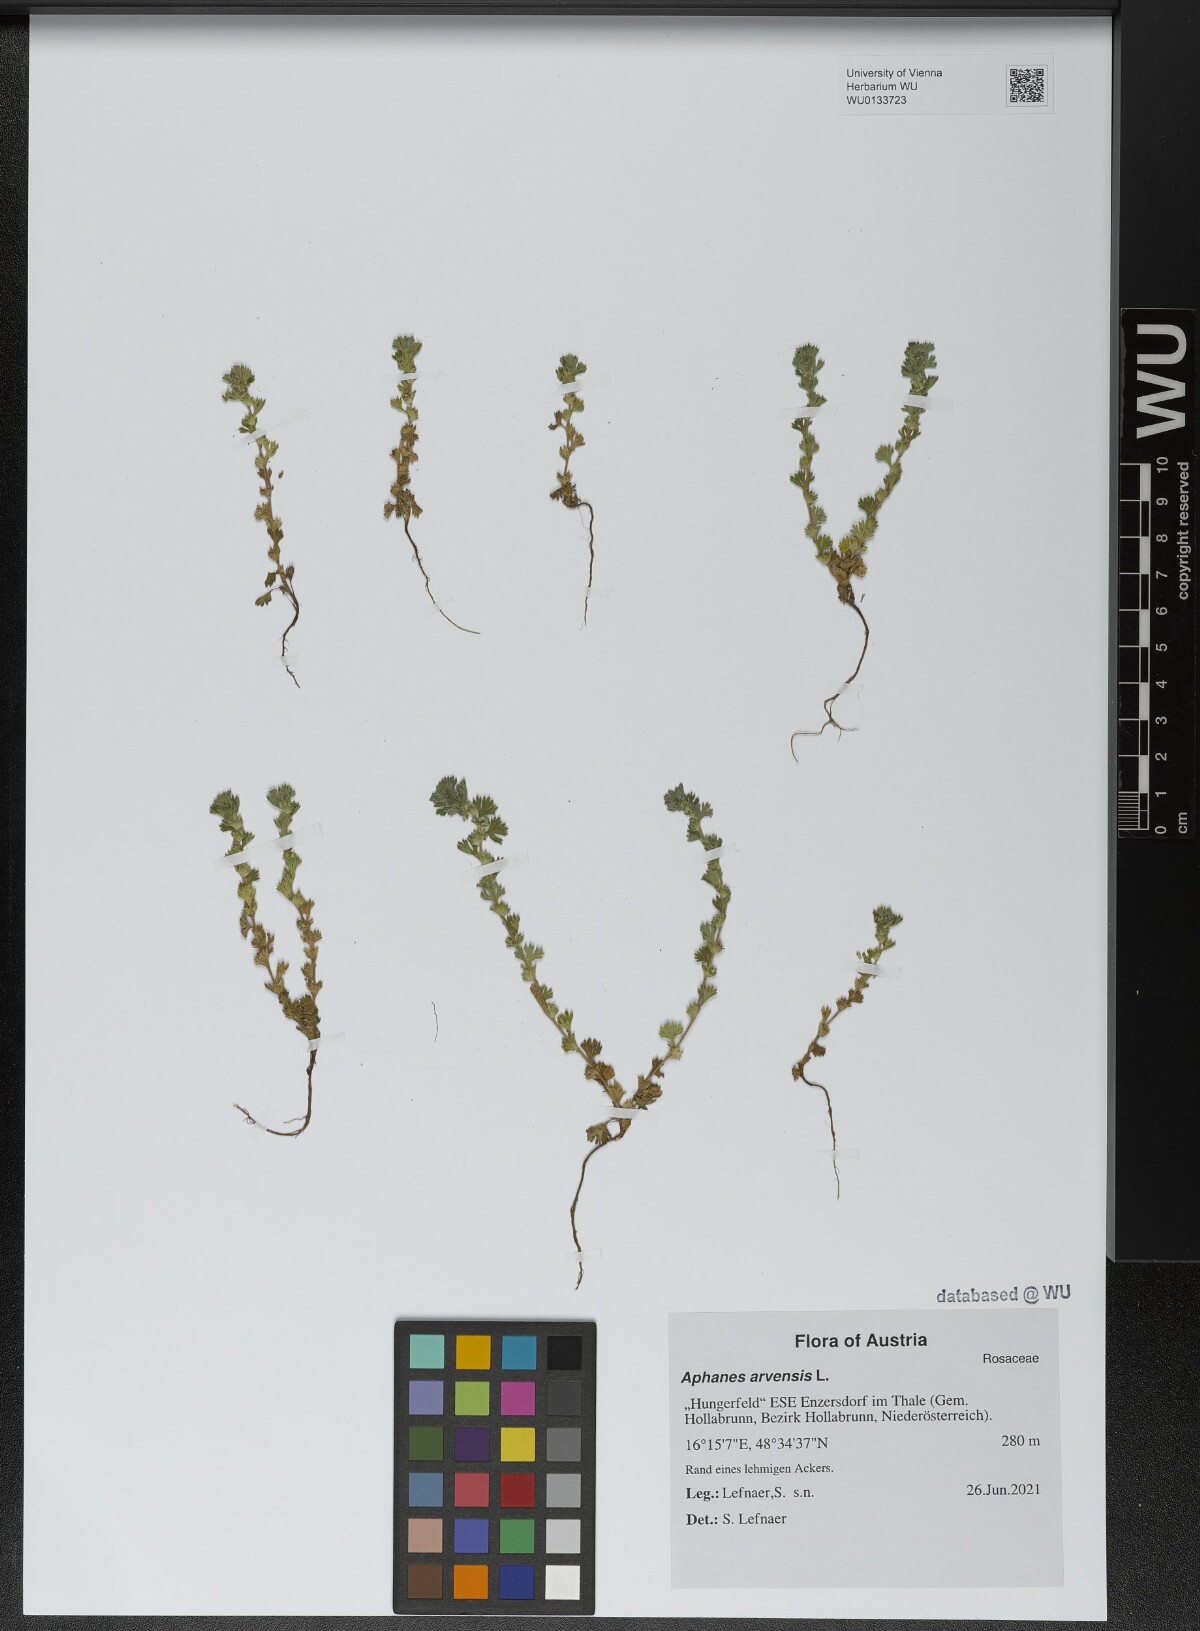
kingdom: Plantae
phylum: Tracheophyta
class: Magnoliopsida
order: Rosales
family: Rosaceae
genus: Aphanes
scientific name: Aphanes arvensis
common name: Parsley-piert
